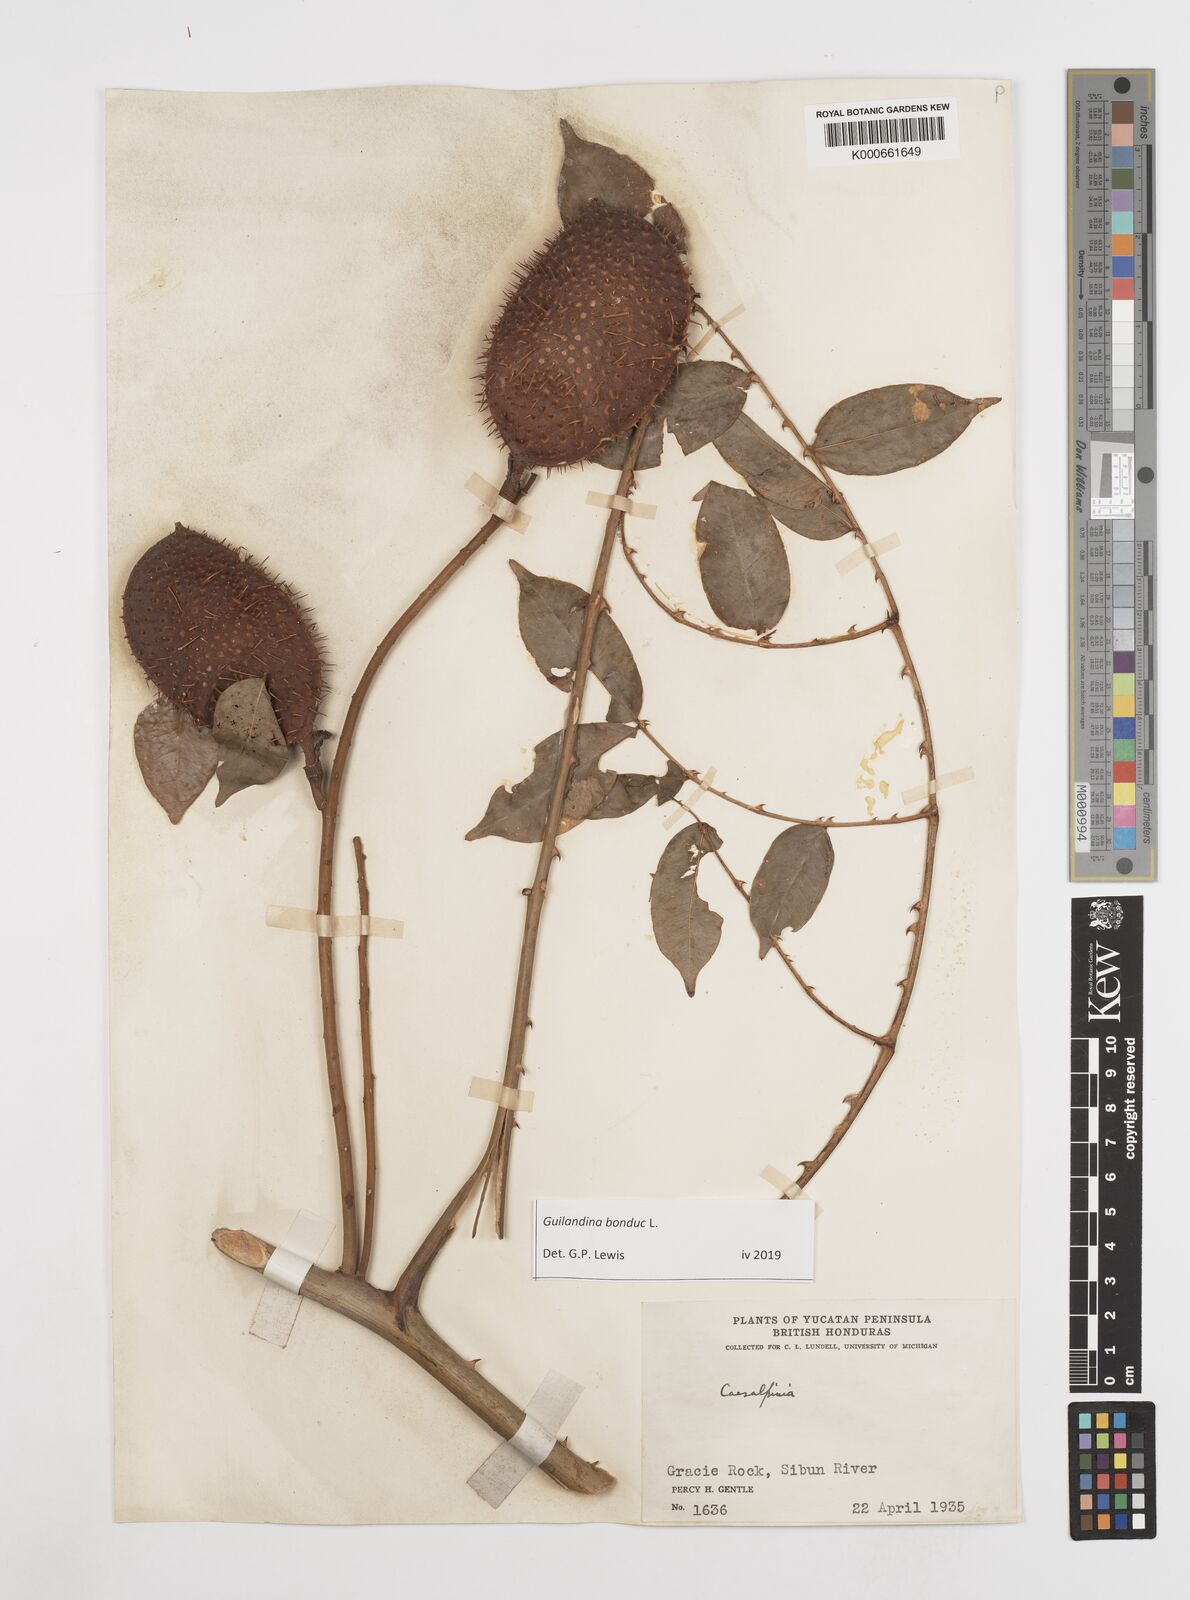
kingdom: Plantae
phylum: Tracheophyta
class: Magnoliopsida
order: Fabales
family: Fabaceae
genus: Guilandina
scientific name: Guilandina bonduc
